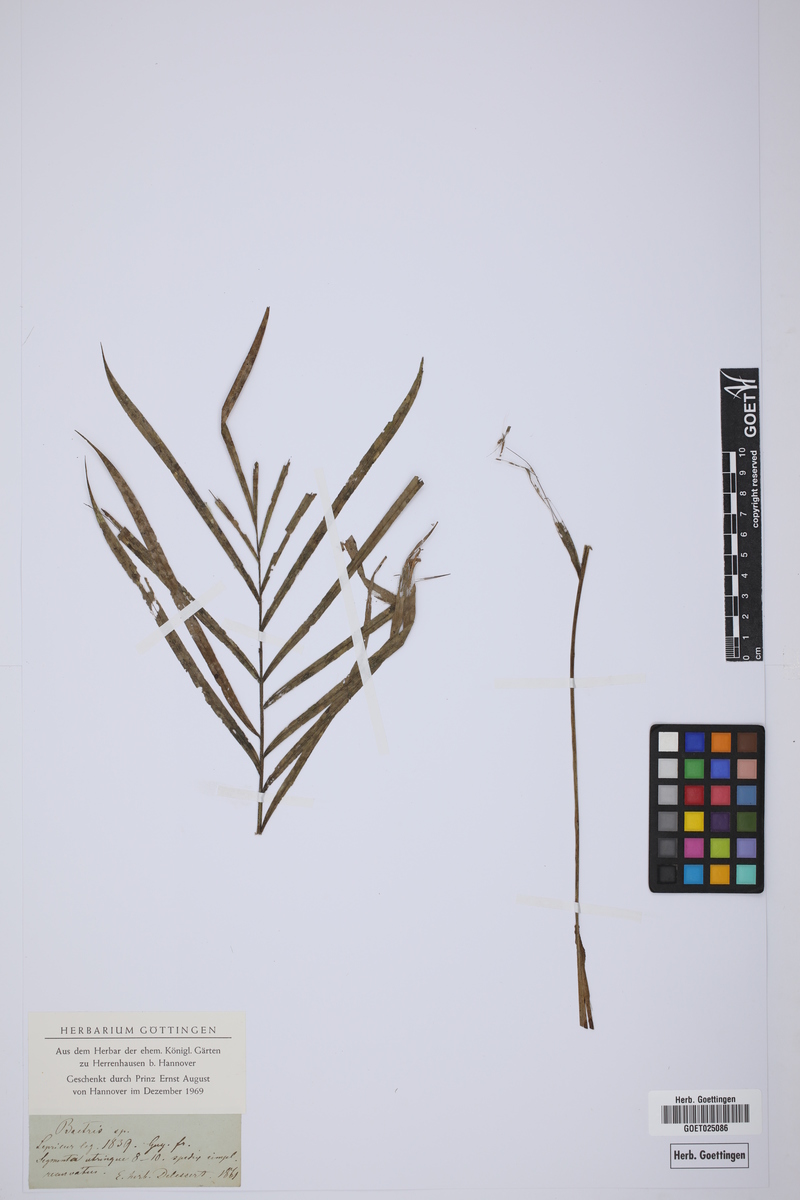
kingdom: Plantae
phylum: Tracheophyta
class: Liliopsida
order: Arecales
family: Arecaceae
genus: Bactris
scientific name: Bactris
